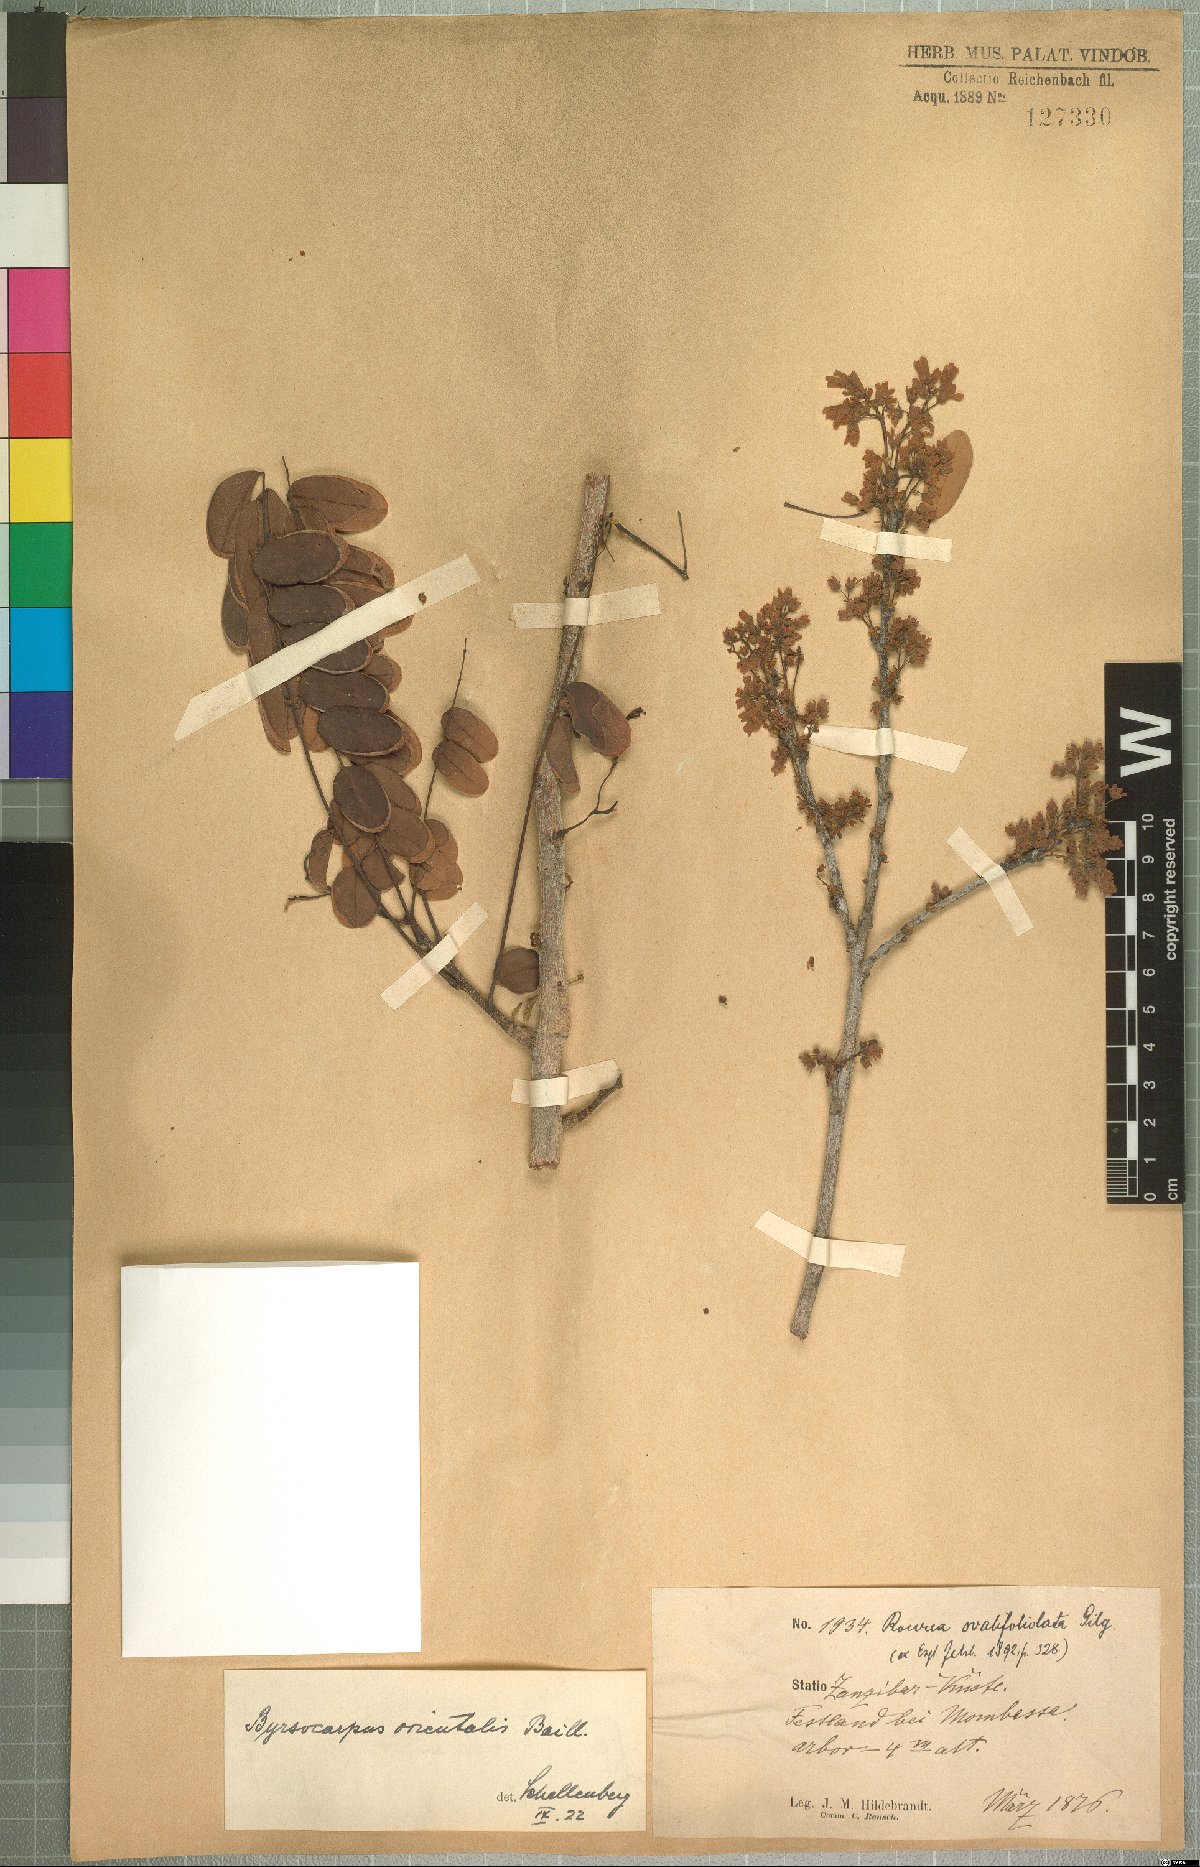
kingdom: Plantae
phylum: Tracheophyta
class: Magnoliopsida
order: Oxalidales
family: Connaraceae
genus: Rourea
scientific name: Rourea coccinea
